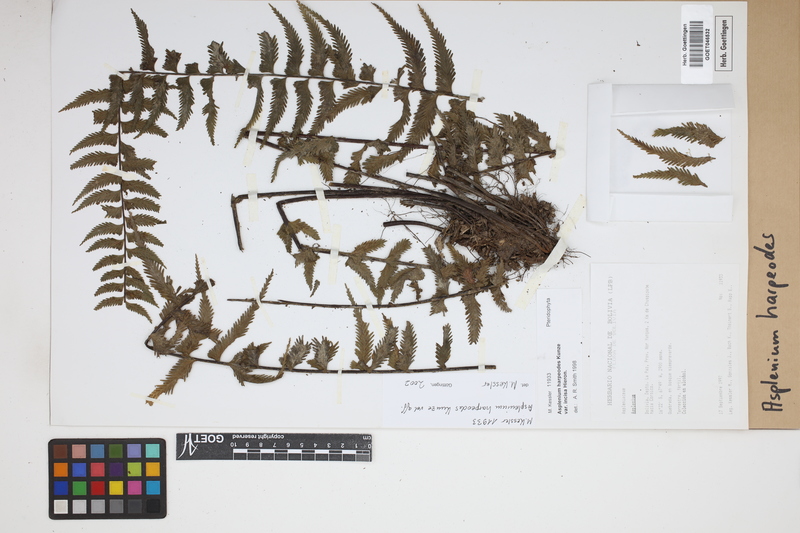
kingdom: Plantae
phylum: Tracheophyta
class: Polypodiopsida
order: Polypodiales
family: Aspleniaceae
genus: Asplenium
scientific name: Asplenium harpeodes
